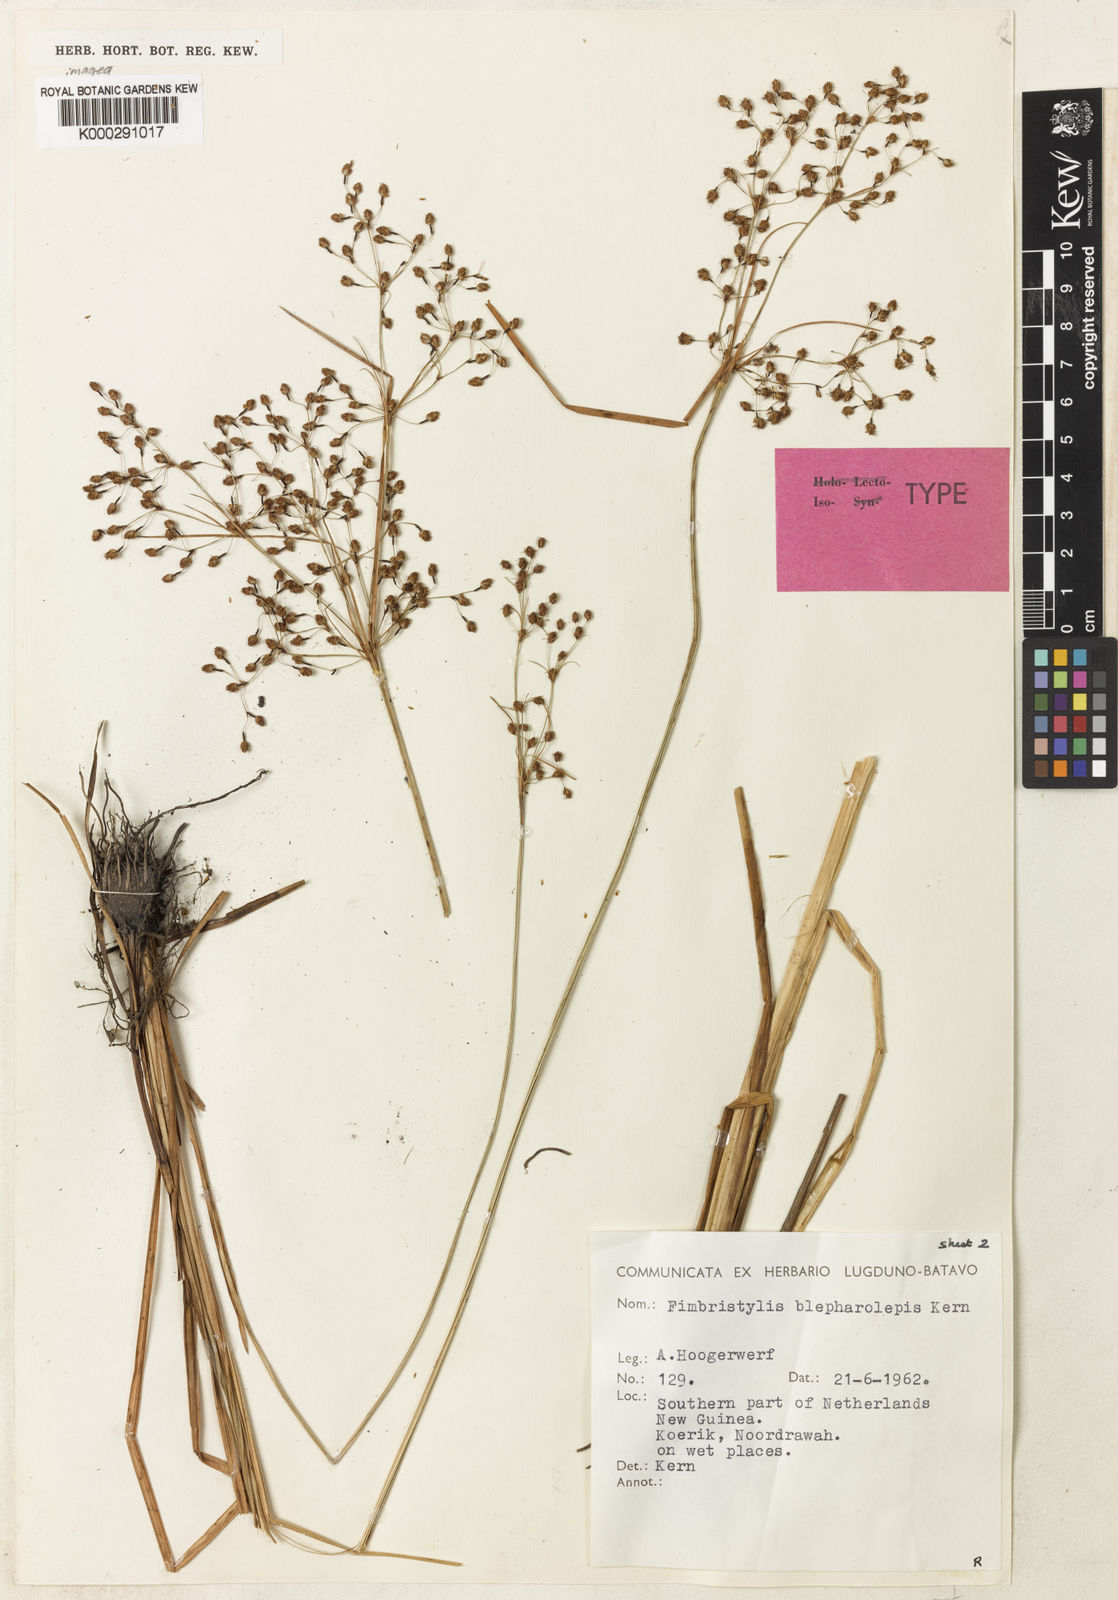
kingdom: Plantae
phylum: Tracheophyta
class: Liliopsida
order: Poales
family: Cyperaceae
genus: Fimbristylis
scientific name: Fimbristylis blepharolepis
